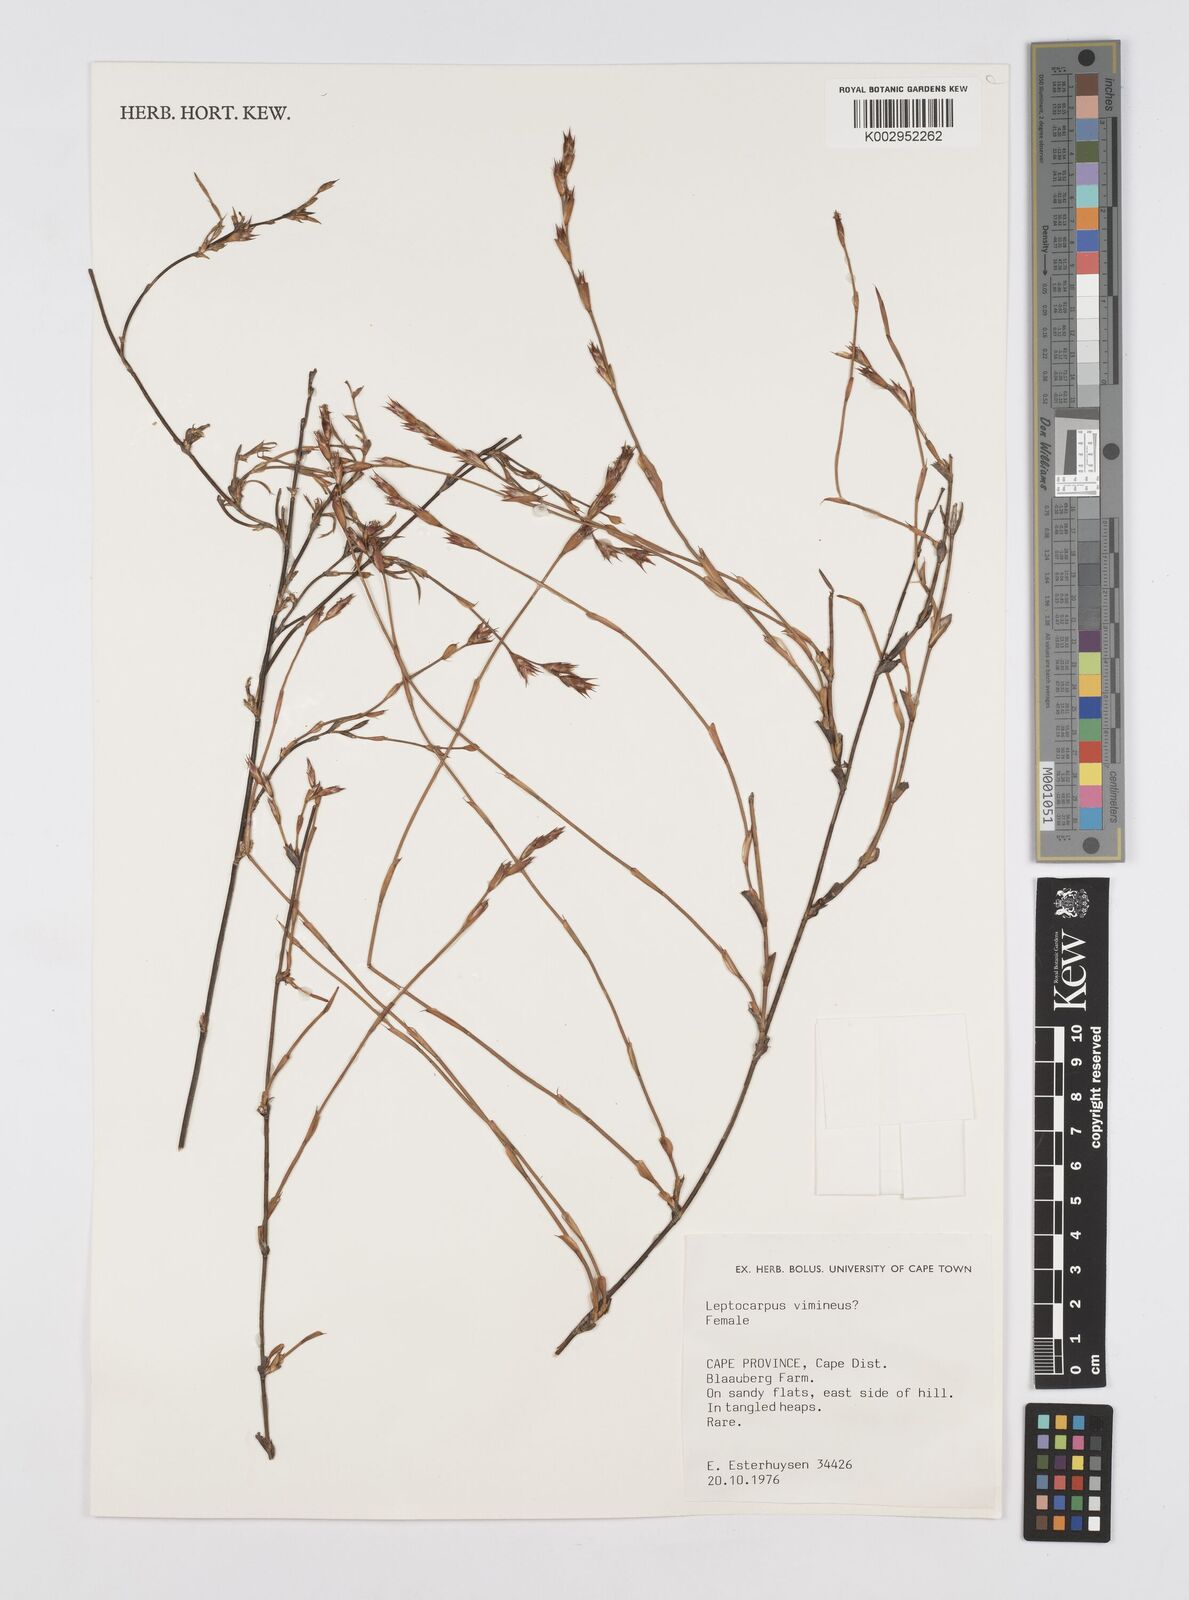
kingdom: Plantae
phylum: Tracheophyta
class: Liliopsida
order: Poales
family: Restionaceae
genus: Restio
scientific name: Restio vimineus
